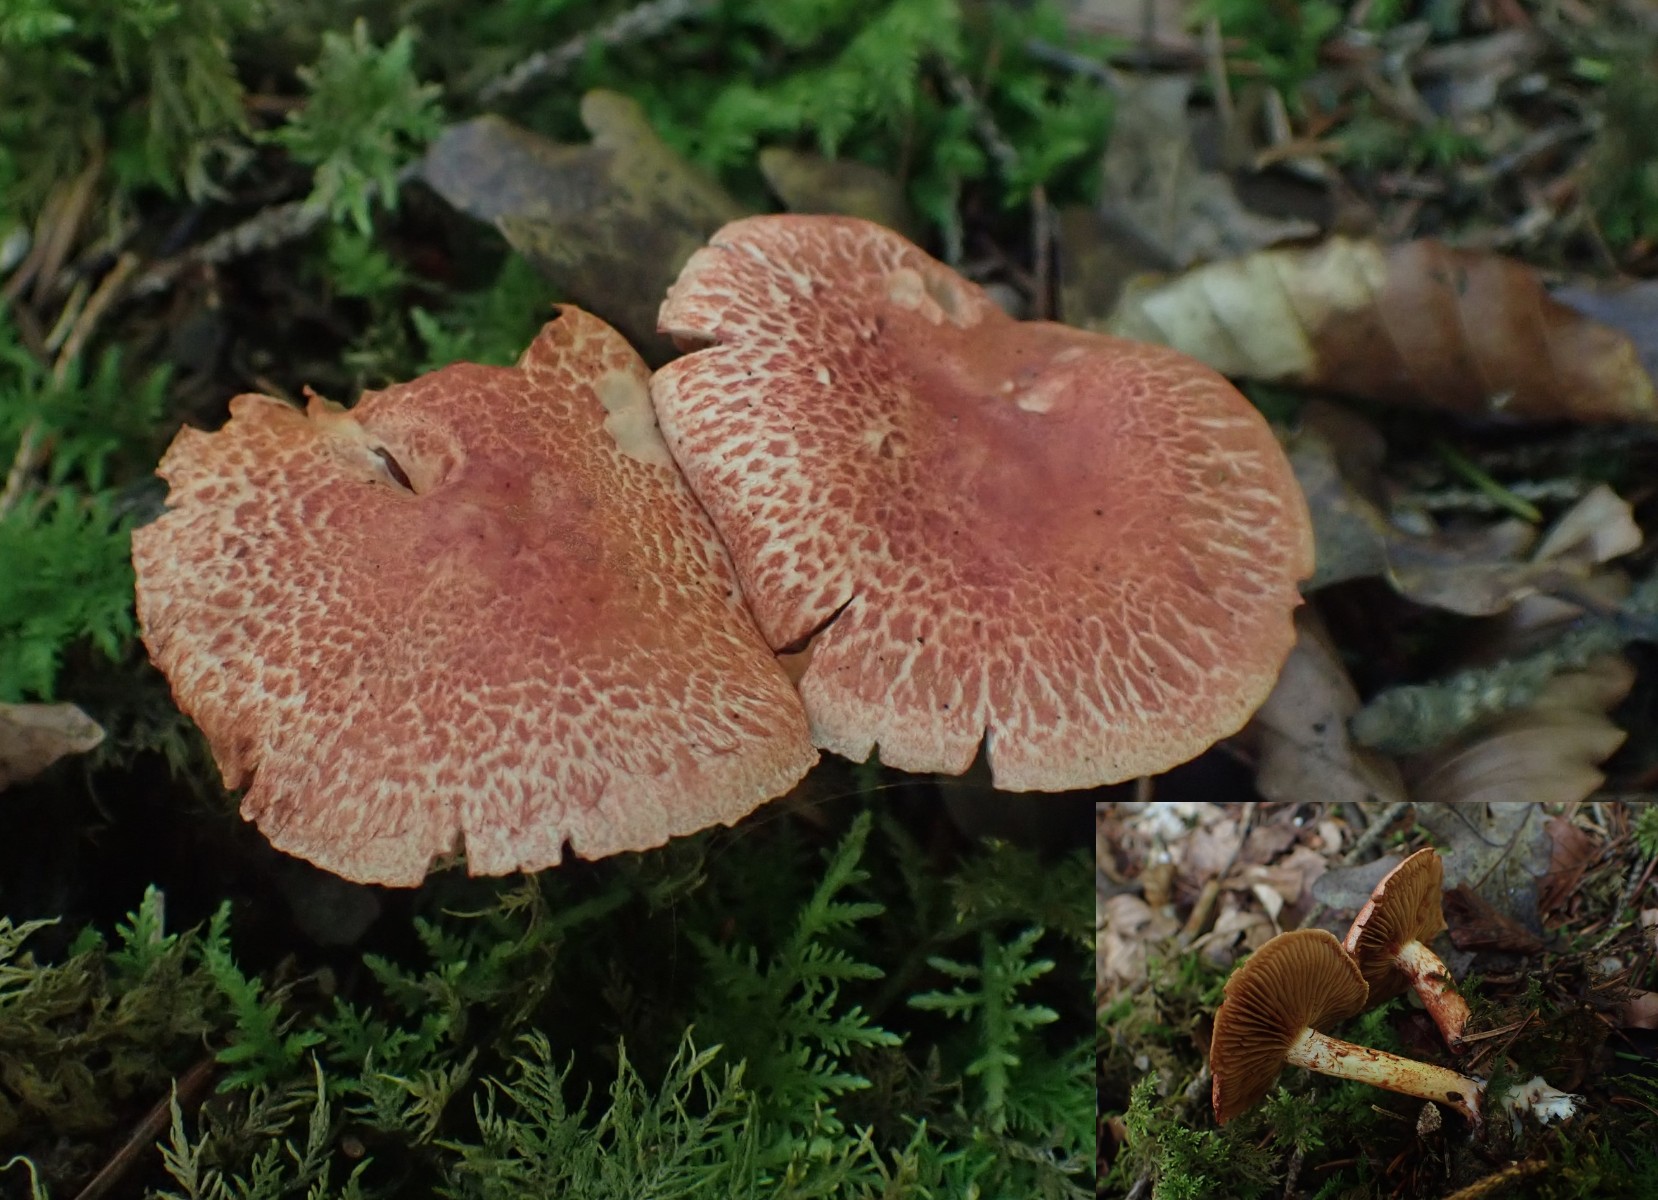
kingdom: Fungi
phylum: Basidiomycota
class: Agaricomycetes
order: Agaricales
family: Cortinariaceae
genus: Cortinarius
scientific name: Cortinarius bolaris
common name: cinnoberskællet slørhat
